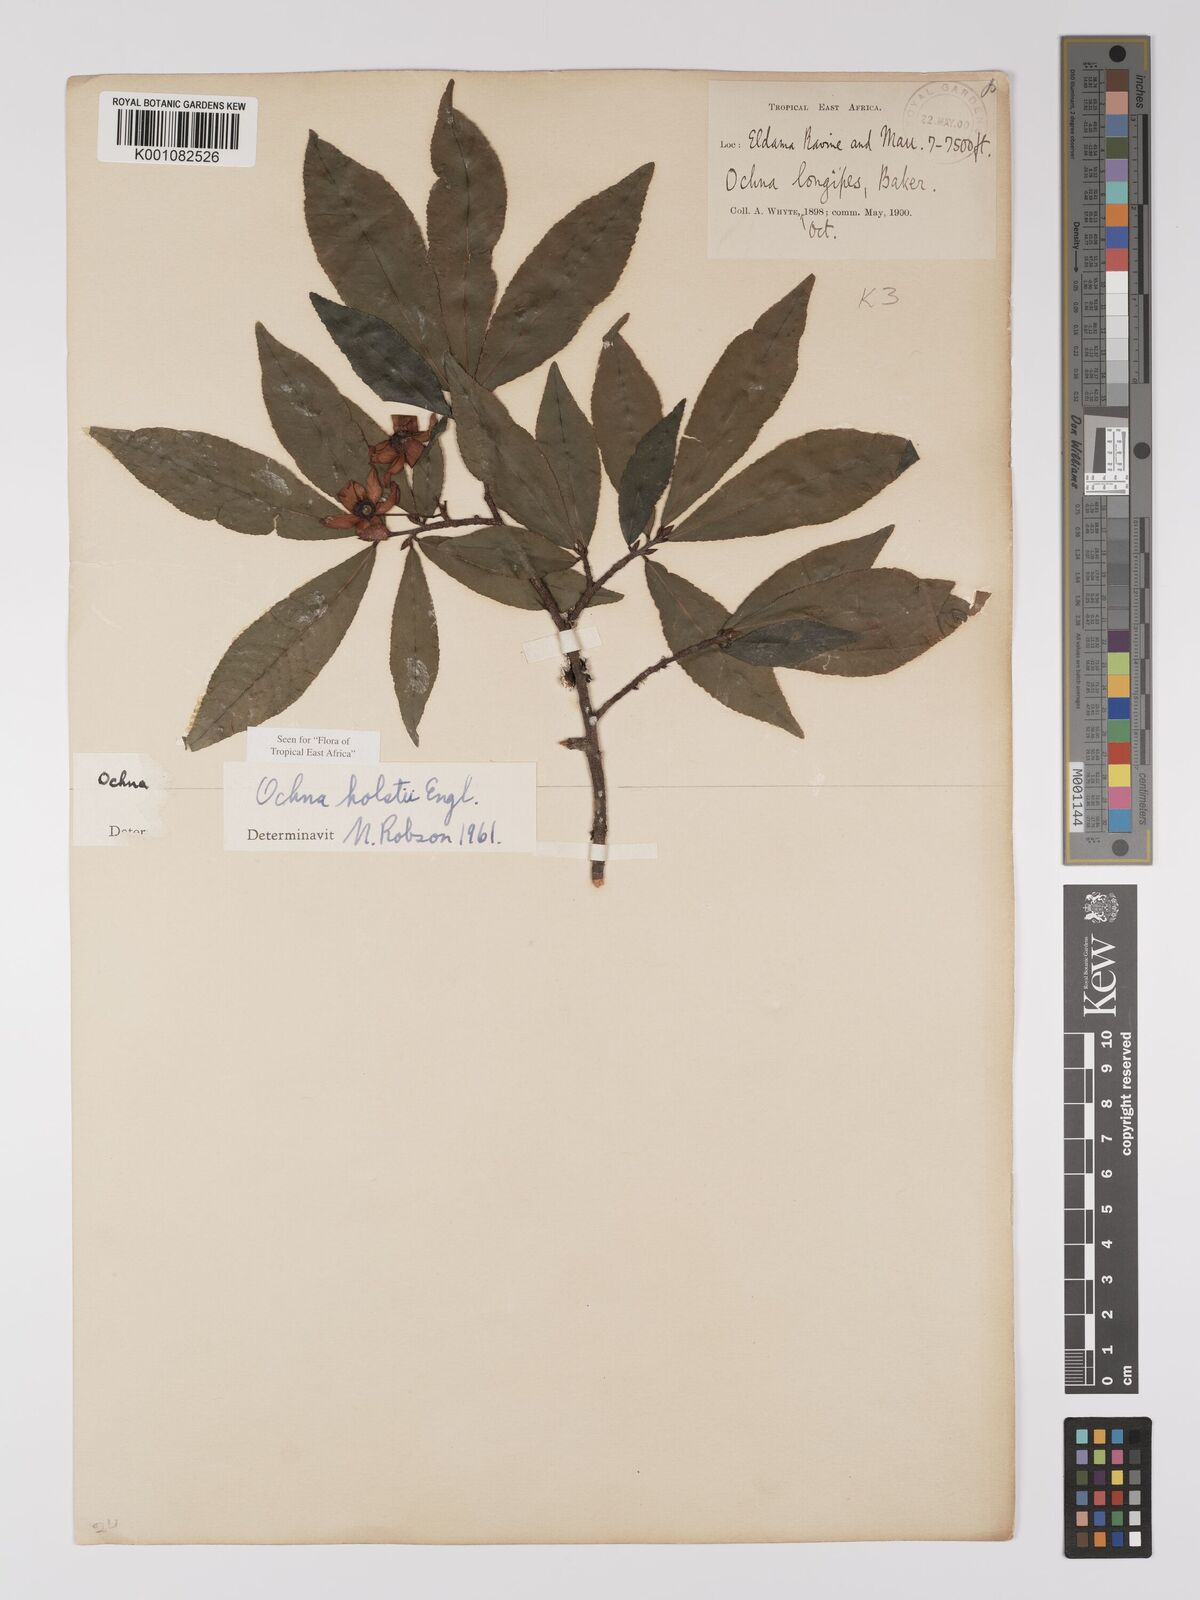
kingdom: Plantae
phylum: Tracheophyta
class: Magnoliopsida
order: Malpighiales
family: Ochnaceae
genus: Ochna
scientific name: Ochna holstii
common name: Red ironwood
